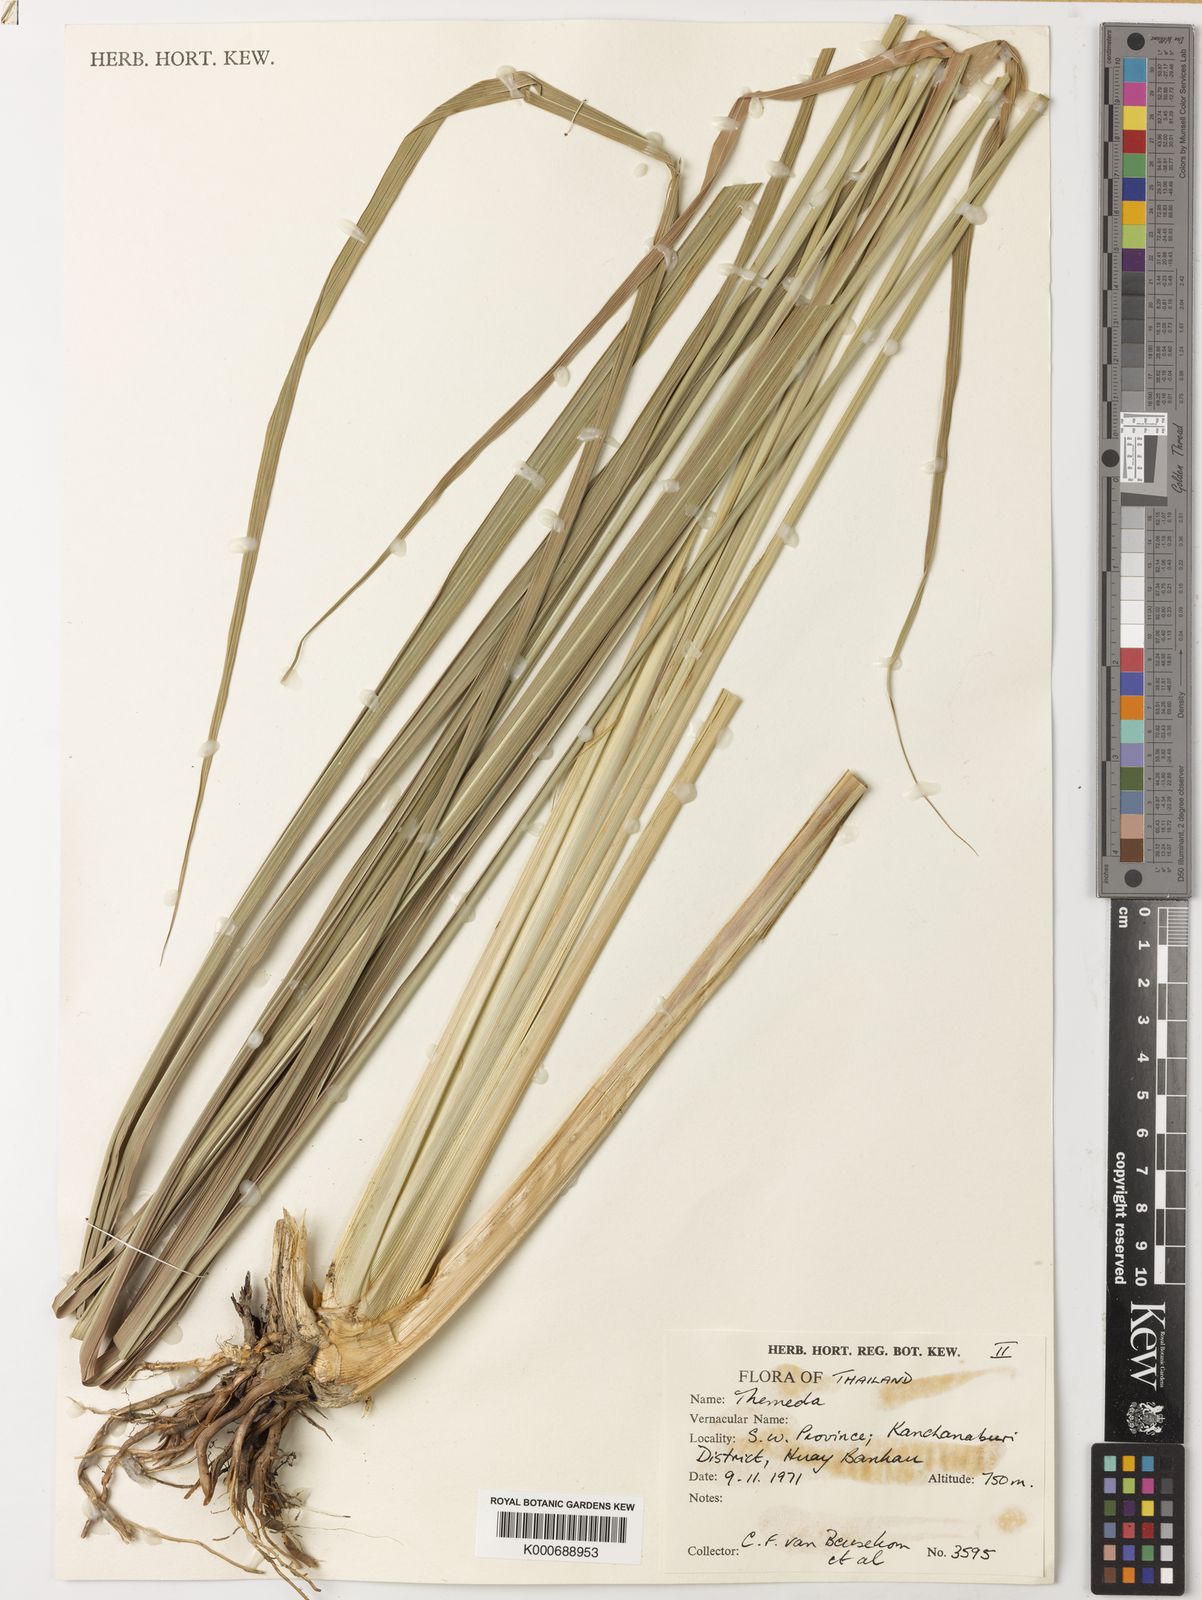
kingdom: Plantae
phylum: Tracheophyta
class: Liliopsida
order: Poales
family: Poaceae
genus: Themeda
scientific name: Themeda villosa
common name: Silky kangaroo grass
